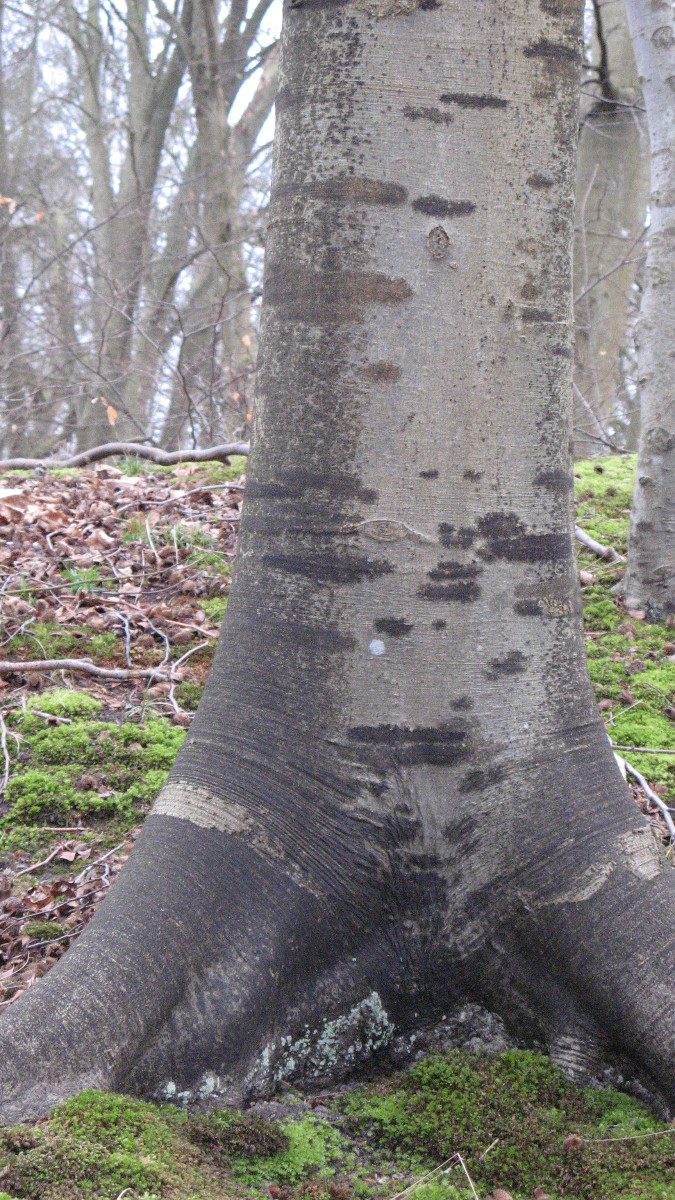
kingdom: Fungi
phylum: Ascomycota
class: Leotiomycetes
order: Rhytismatales
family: Ascodichaenaceae
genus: Ascodichaena
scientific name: Ascodichaena rugosa
